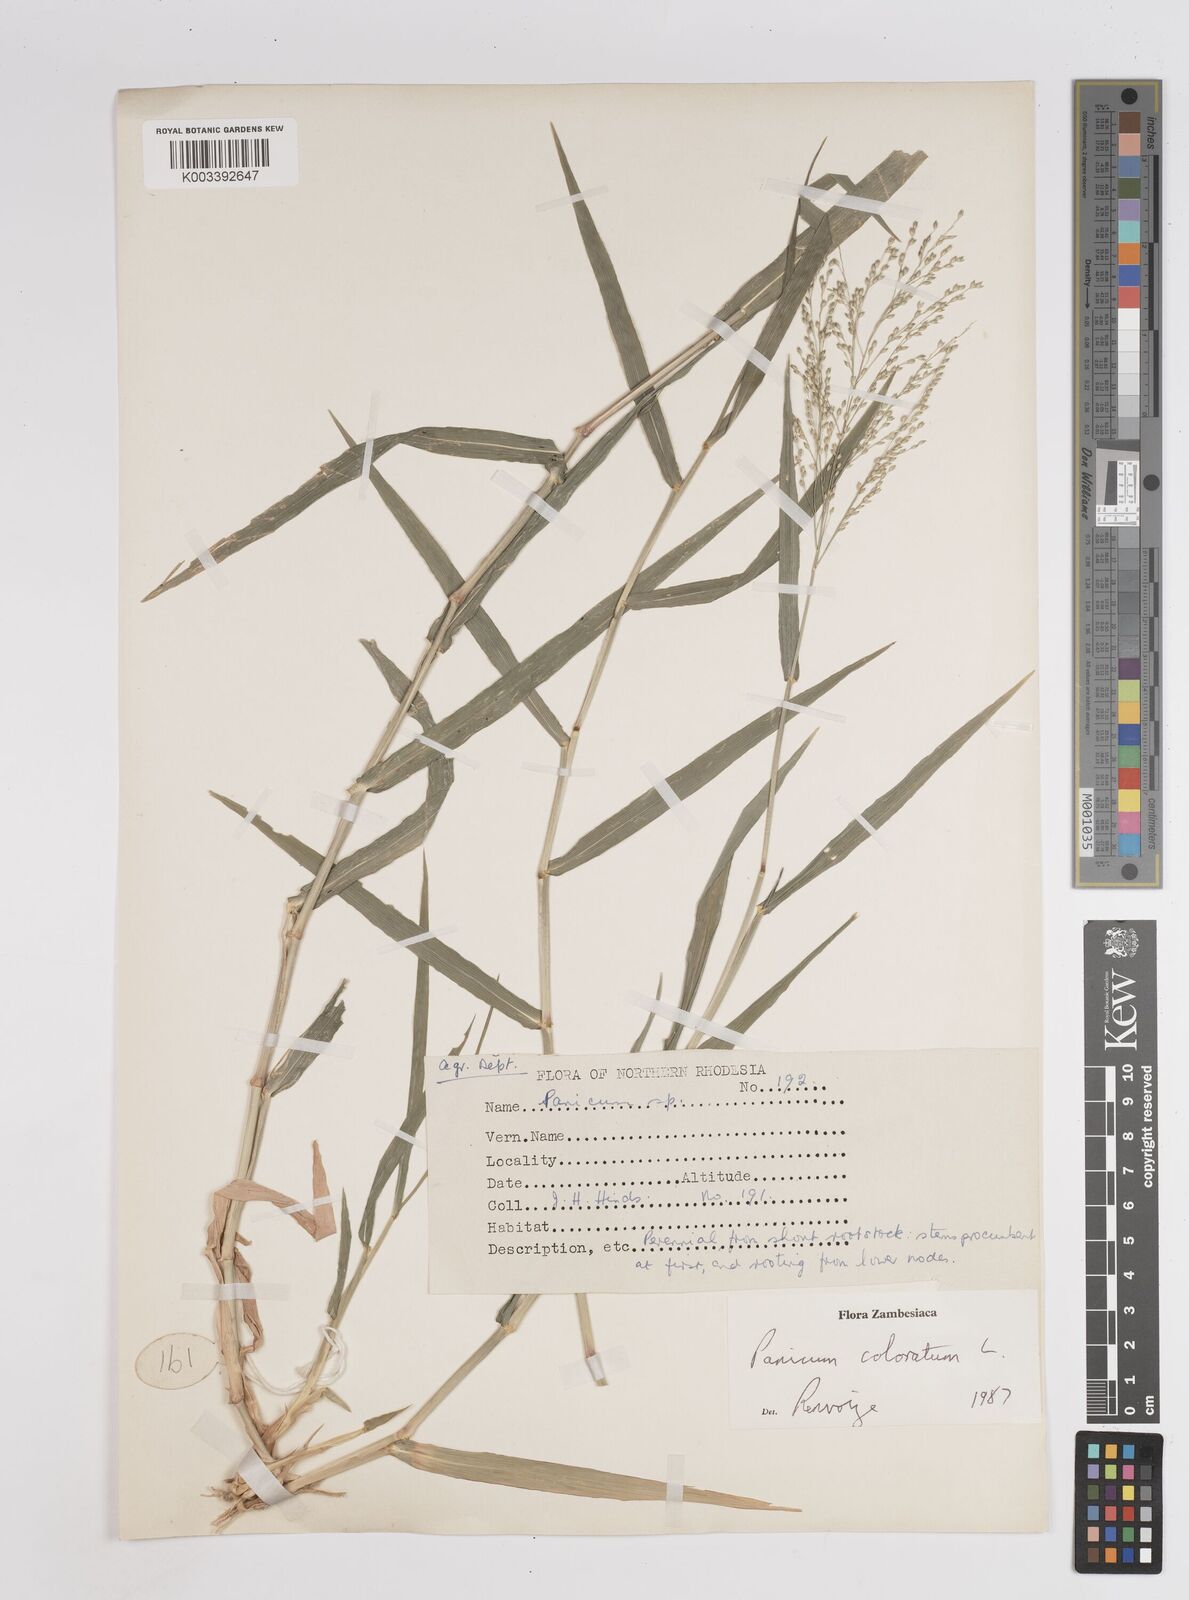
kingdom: Plantae
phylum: Tracheophyta
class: Liliopsida
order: Poales
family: Poaceae
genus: Panicum
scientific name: Panicum
